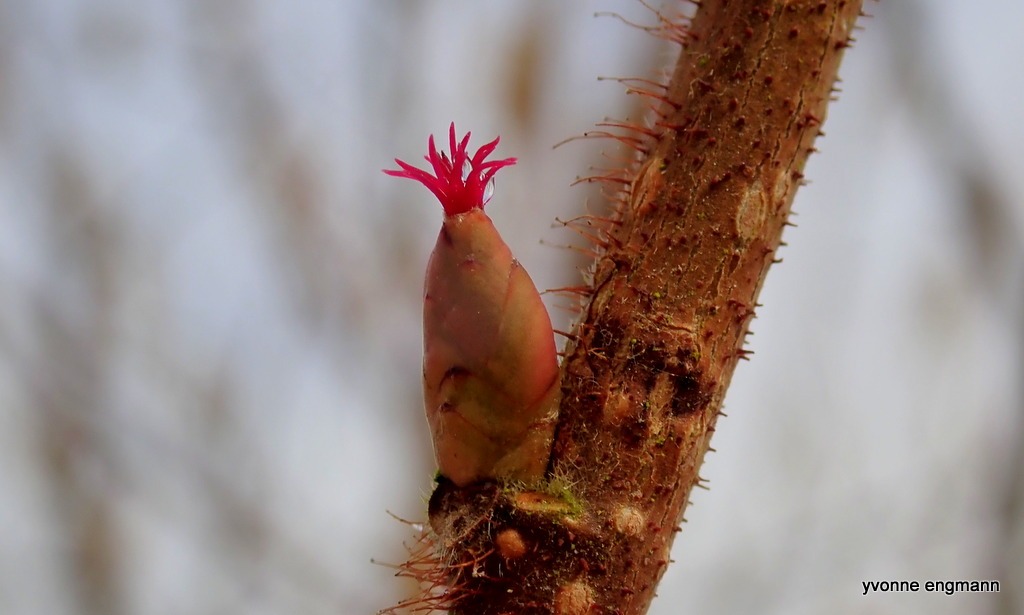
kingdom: Plantae
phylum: Tracheophyta
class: Magnoliopsida
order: Fagales
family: Betulaceae
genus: Corylus
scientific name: Corylus avellana
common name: Hassel
